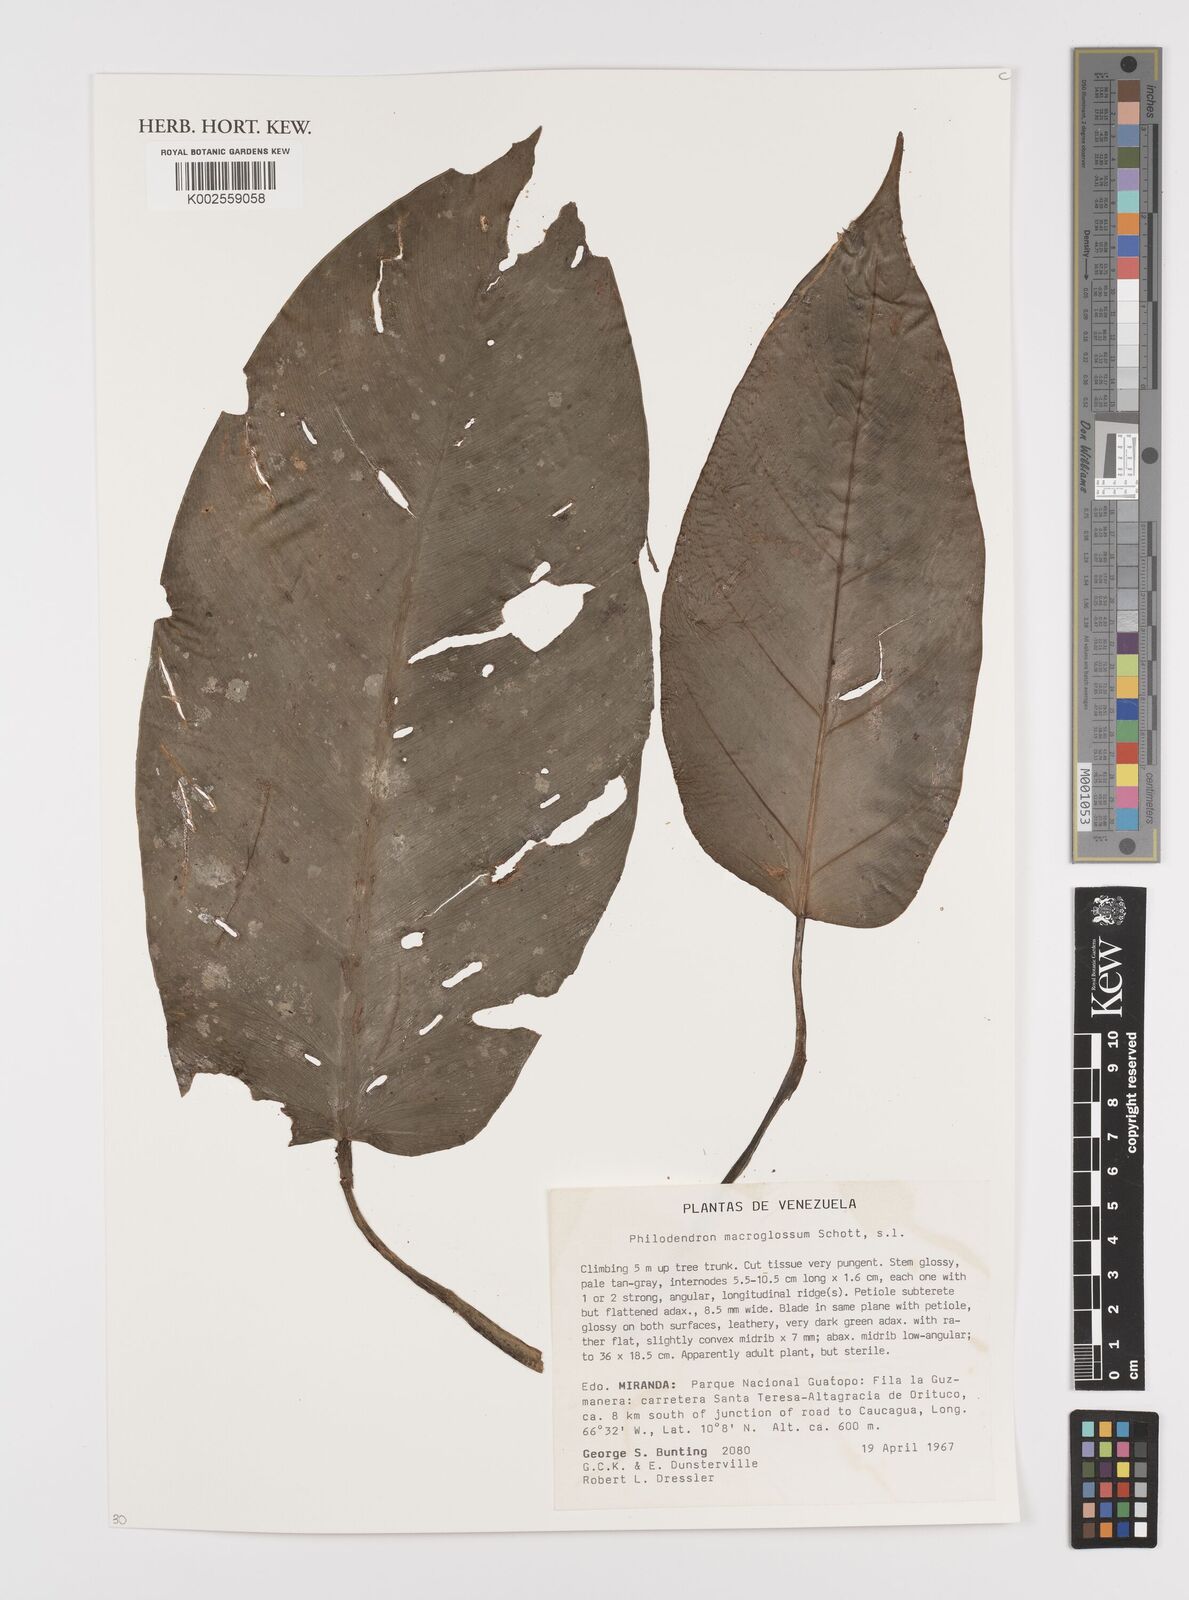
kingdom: Plantae
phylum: Tracheophyta
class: Liliopsida
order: Alismatales
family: Araceae
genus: Philodendron
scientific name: Philodendron macroglossum
